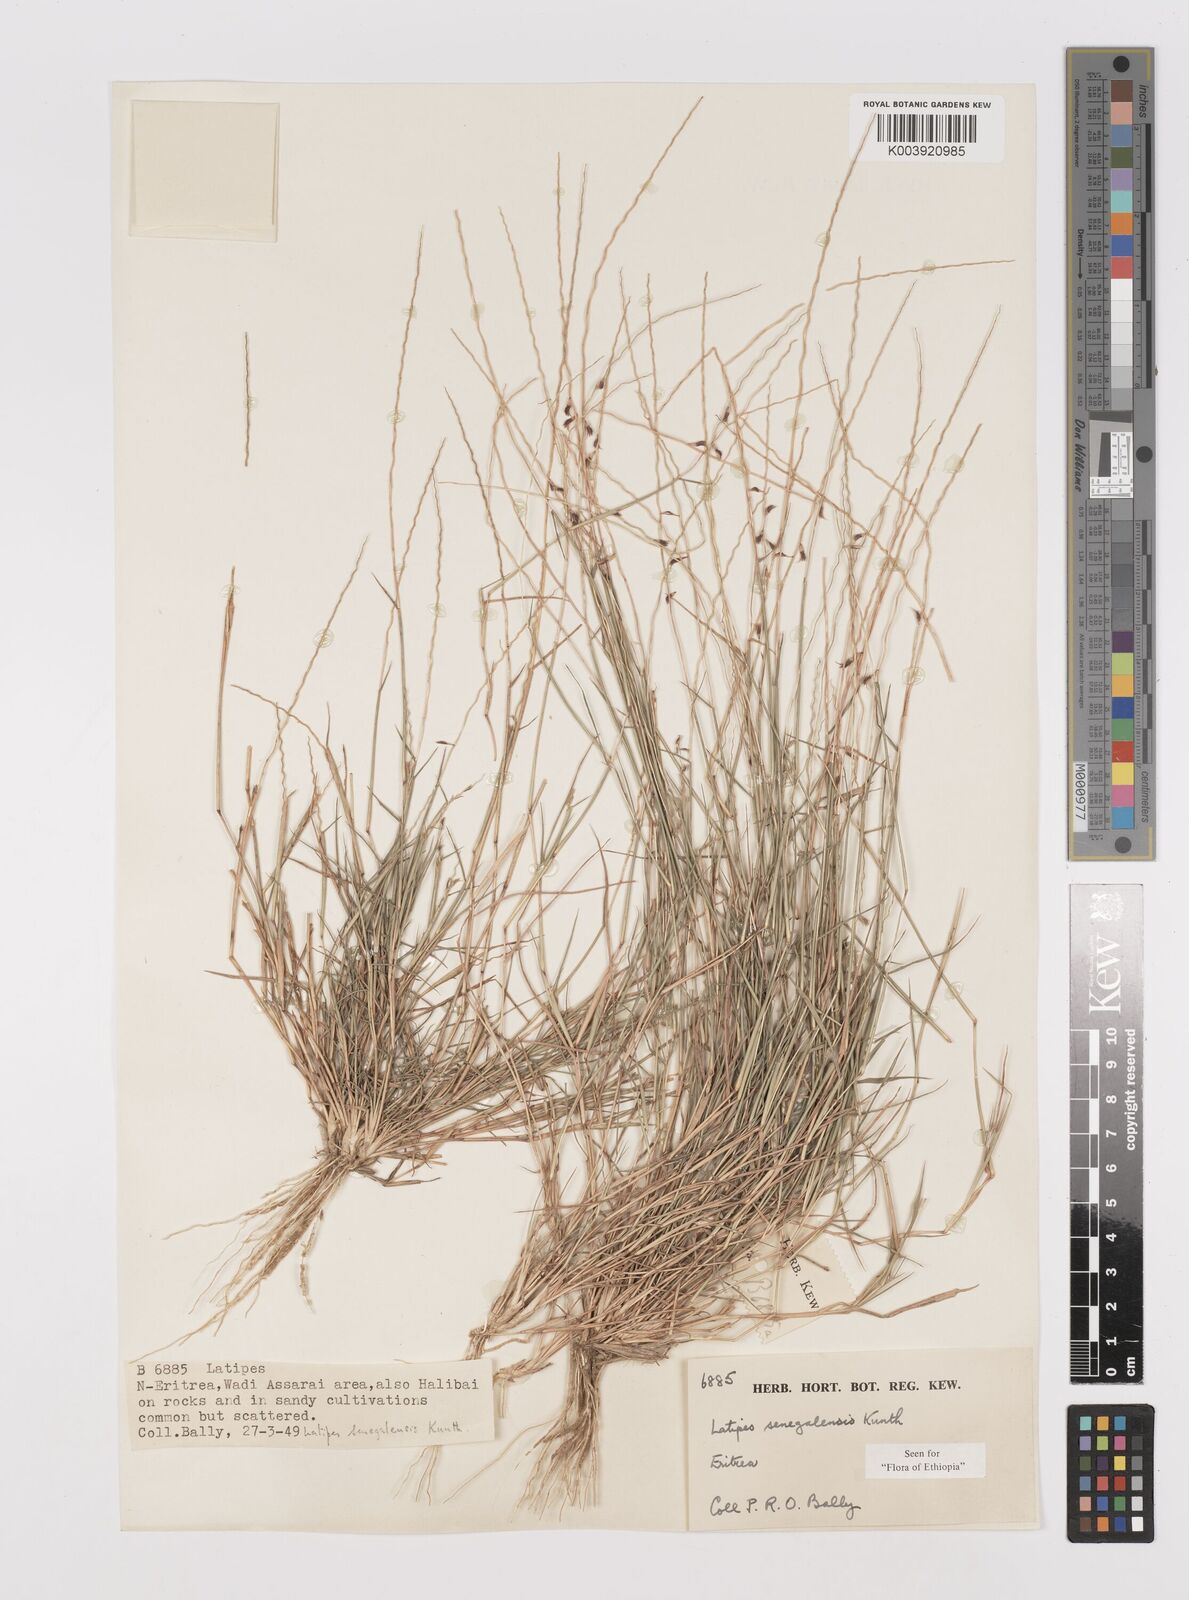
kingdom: Plantae
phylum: Tracheophyta
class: Liliopsida
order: Poales
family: Poaceae
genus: Leptothrium
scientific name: Leptothrium senegalense
